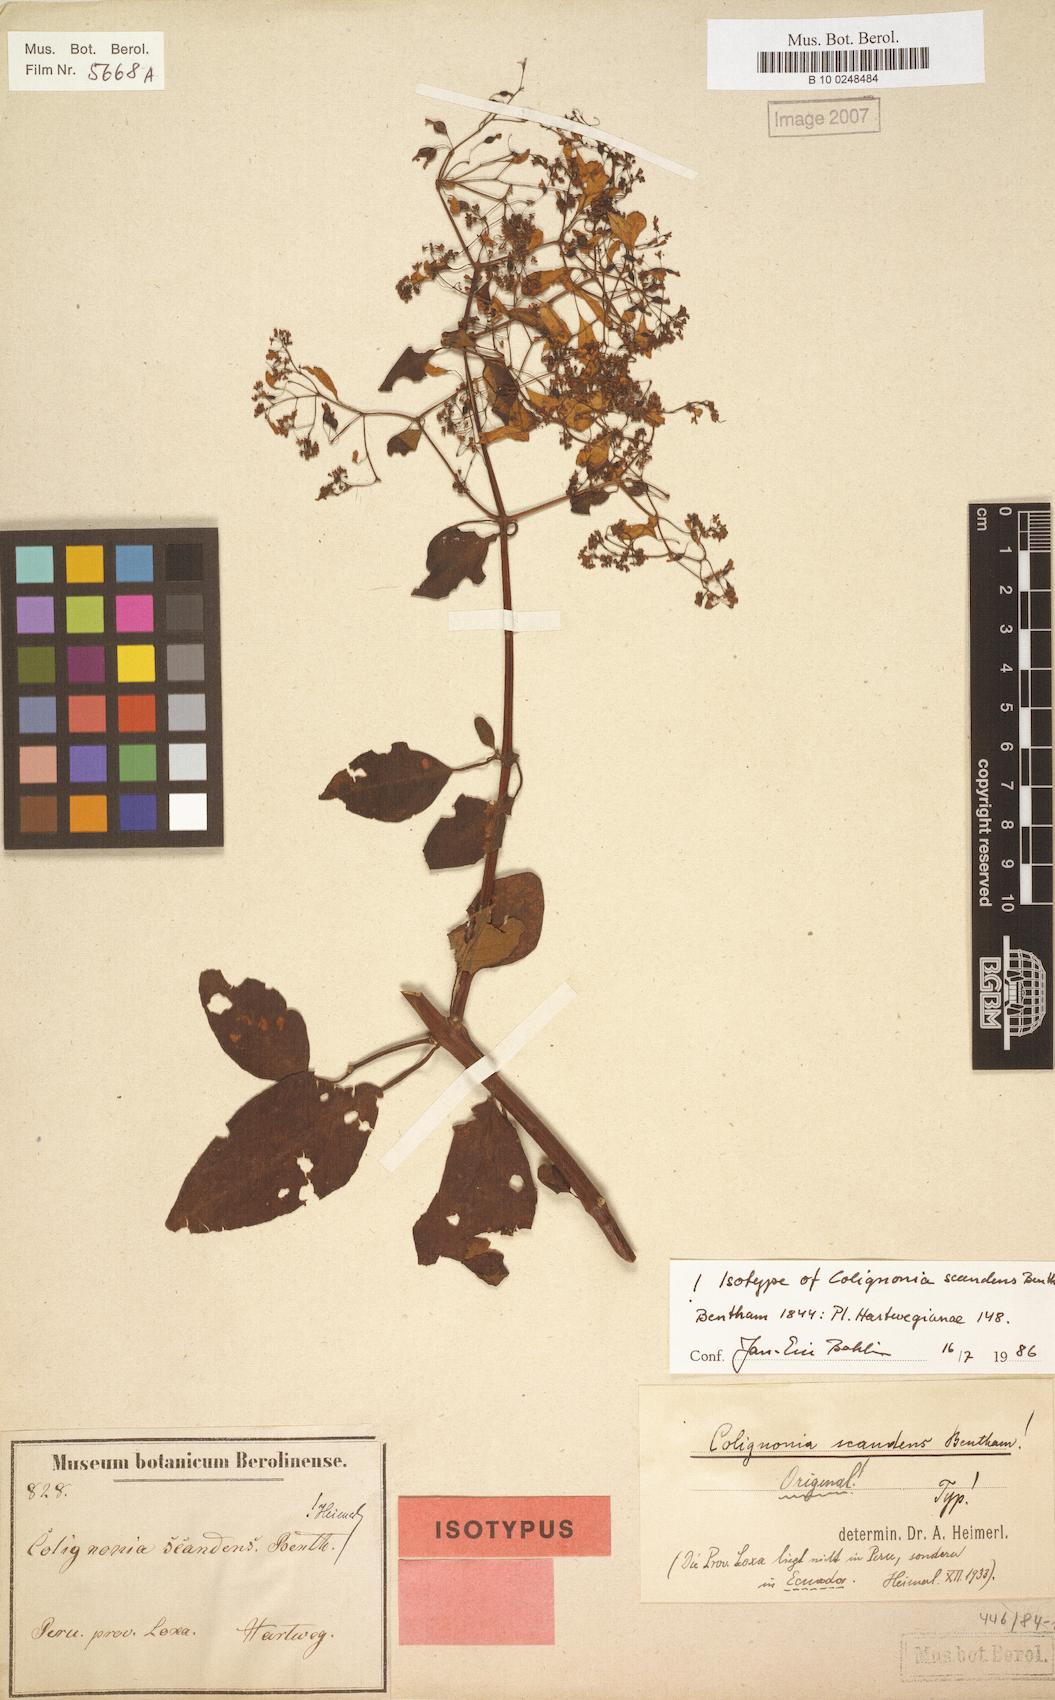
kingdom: Plantae
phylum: Tracheophyta
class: Magnoliopsida
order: Caryophyllales
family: Nyctaginaceae
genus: Colignonia
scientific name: Colignonia scandens
